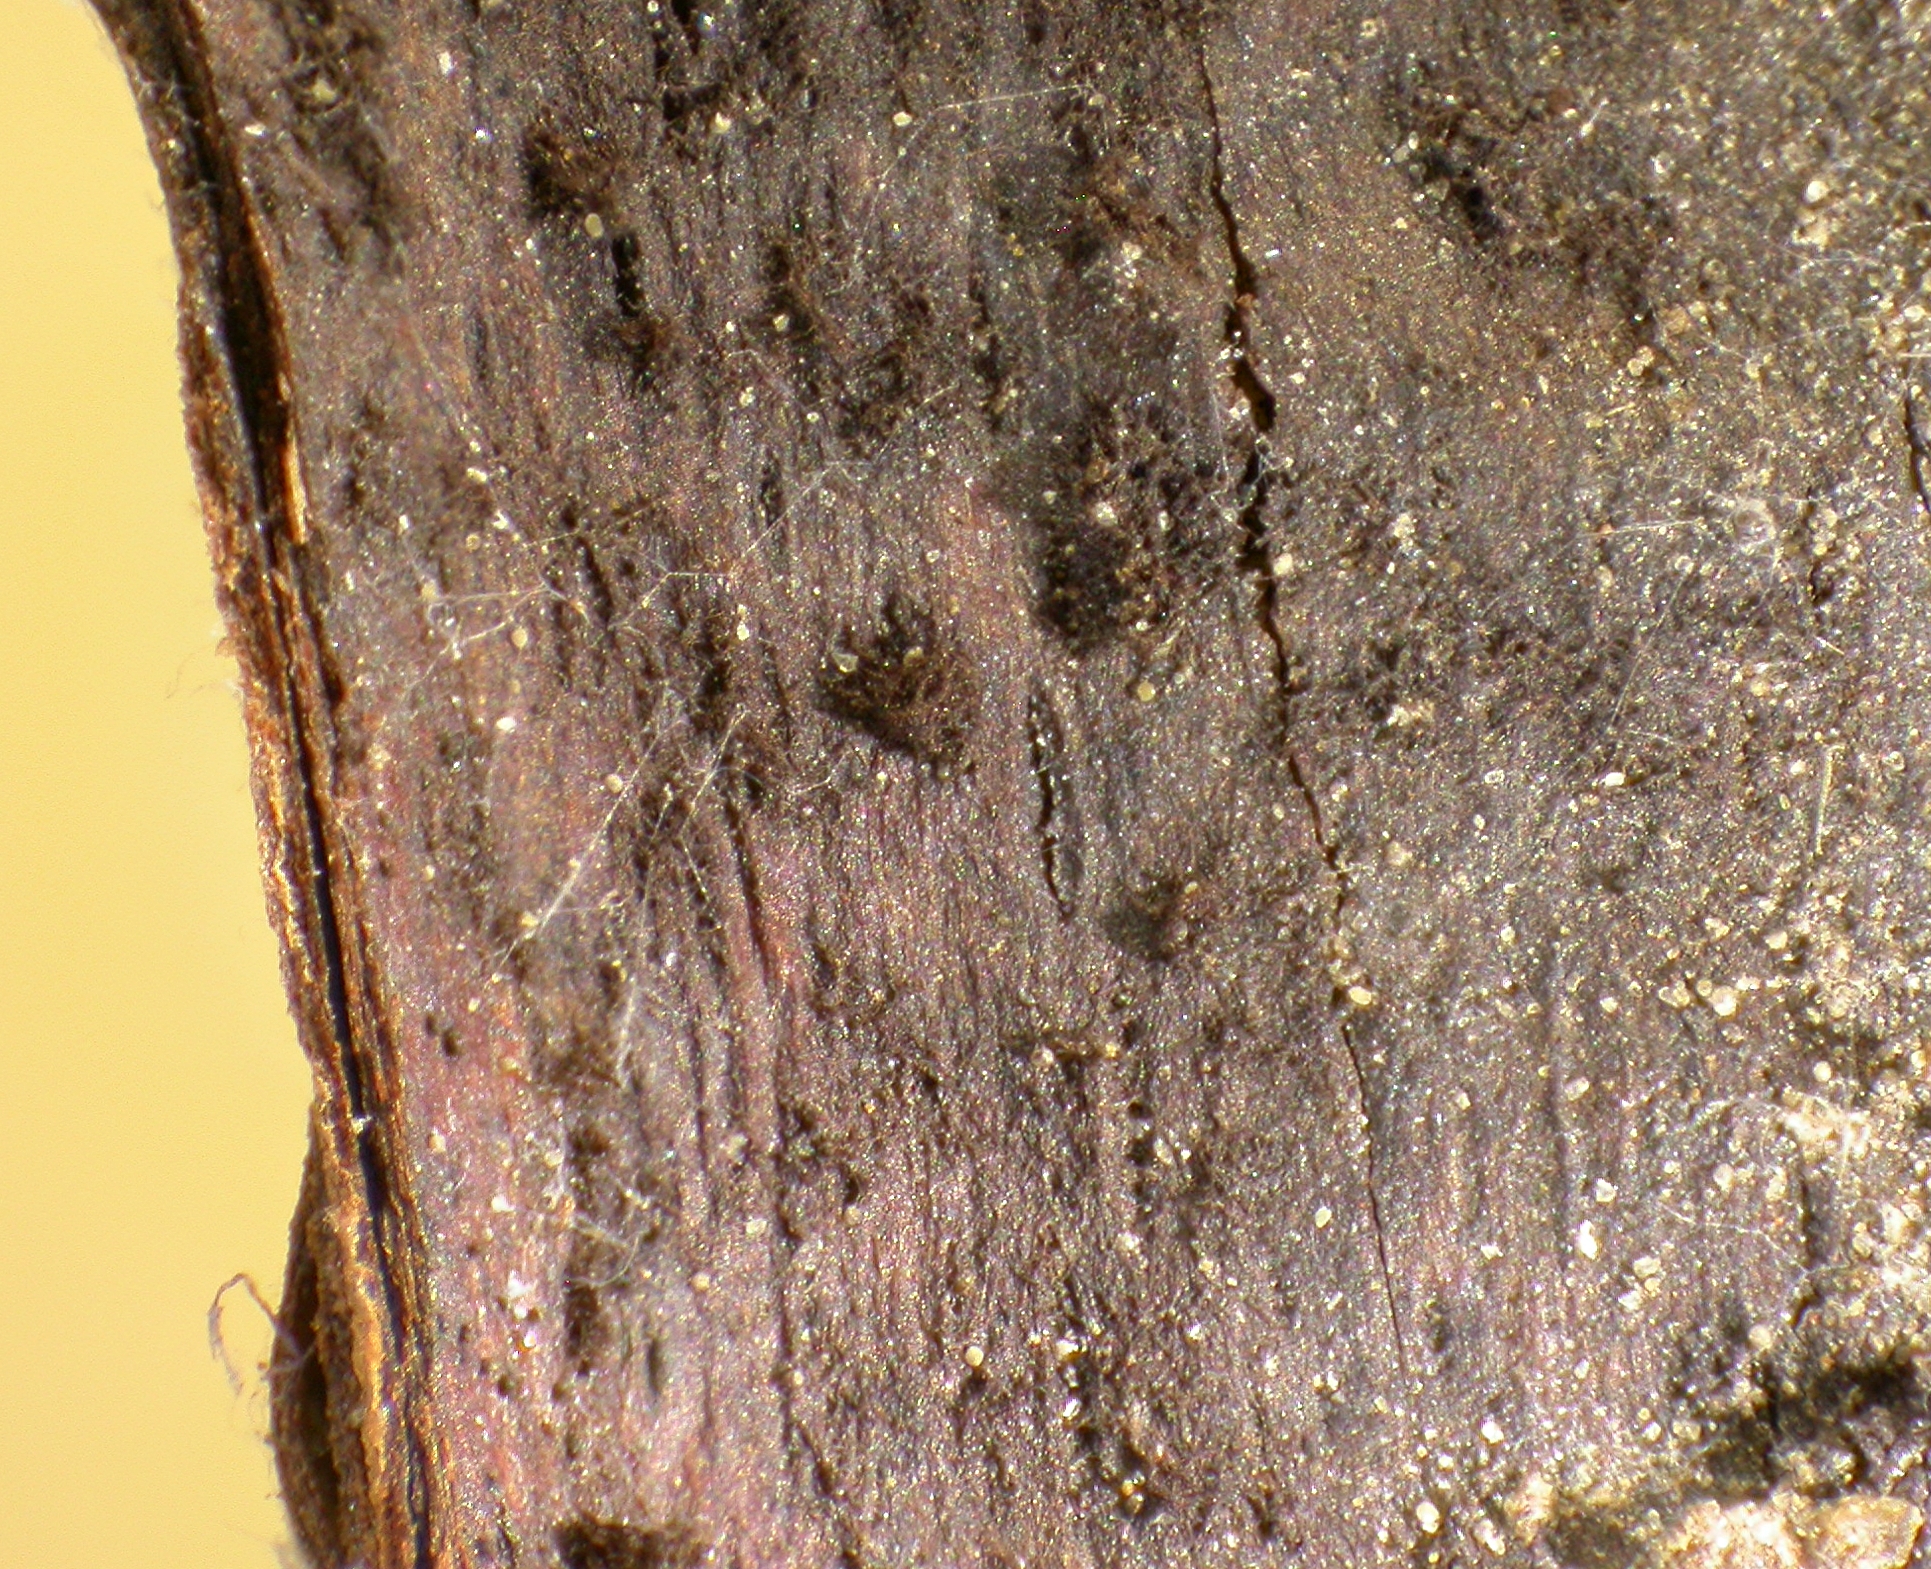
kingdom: Fungi
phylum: Ascomycota
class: Leotiomycetes
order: Helotiales
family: Hyaloscyphaceae
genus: Unguiculella
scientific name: Unguiculella aggregata
